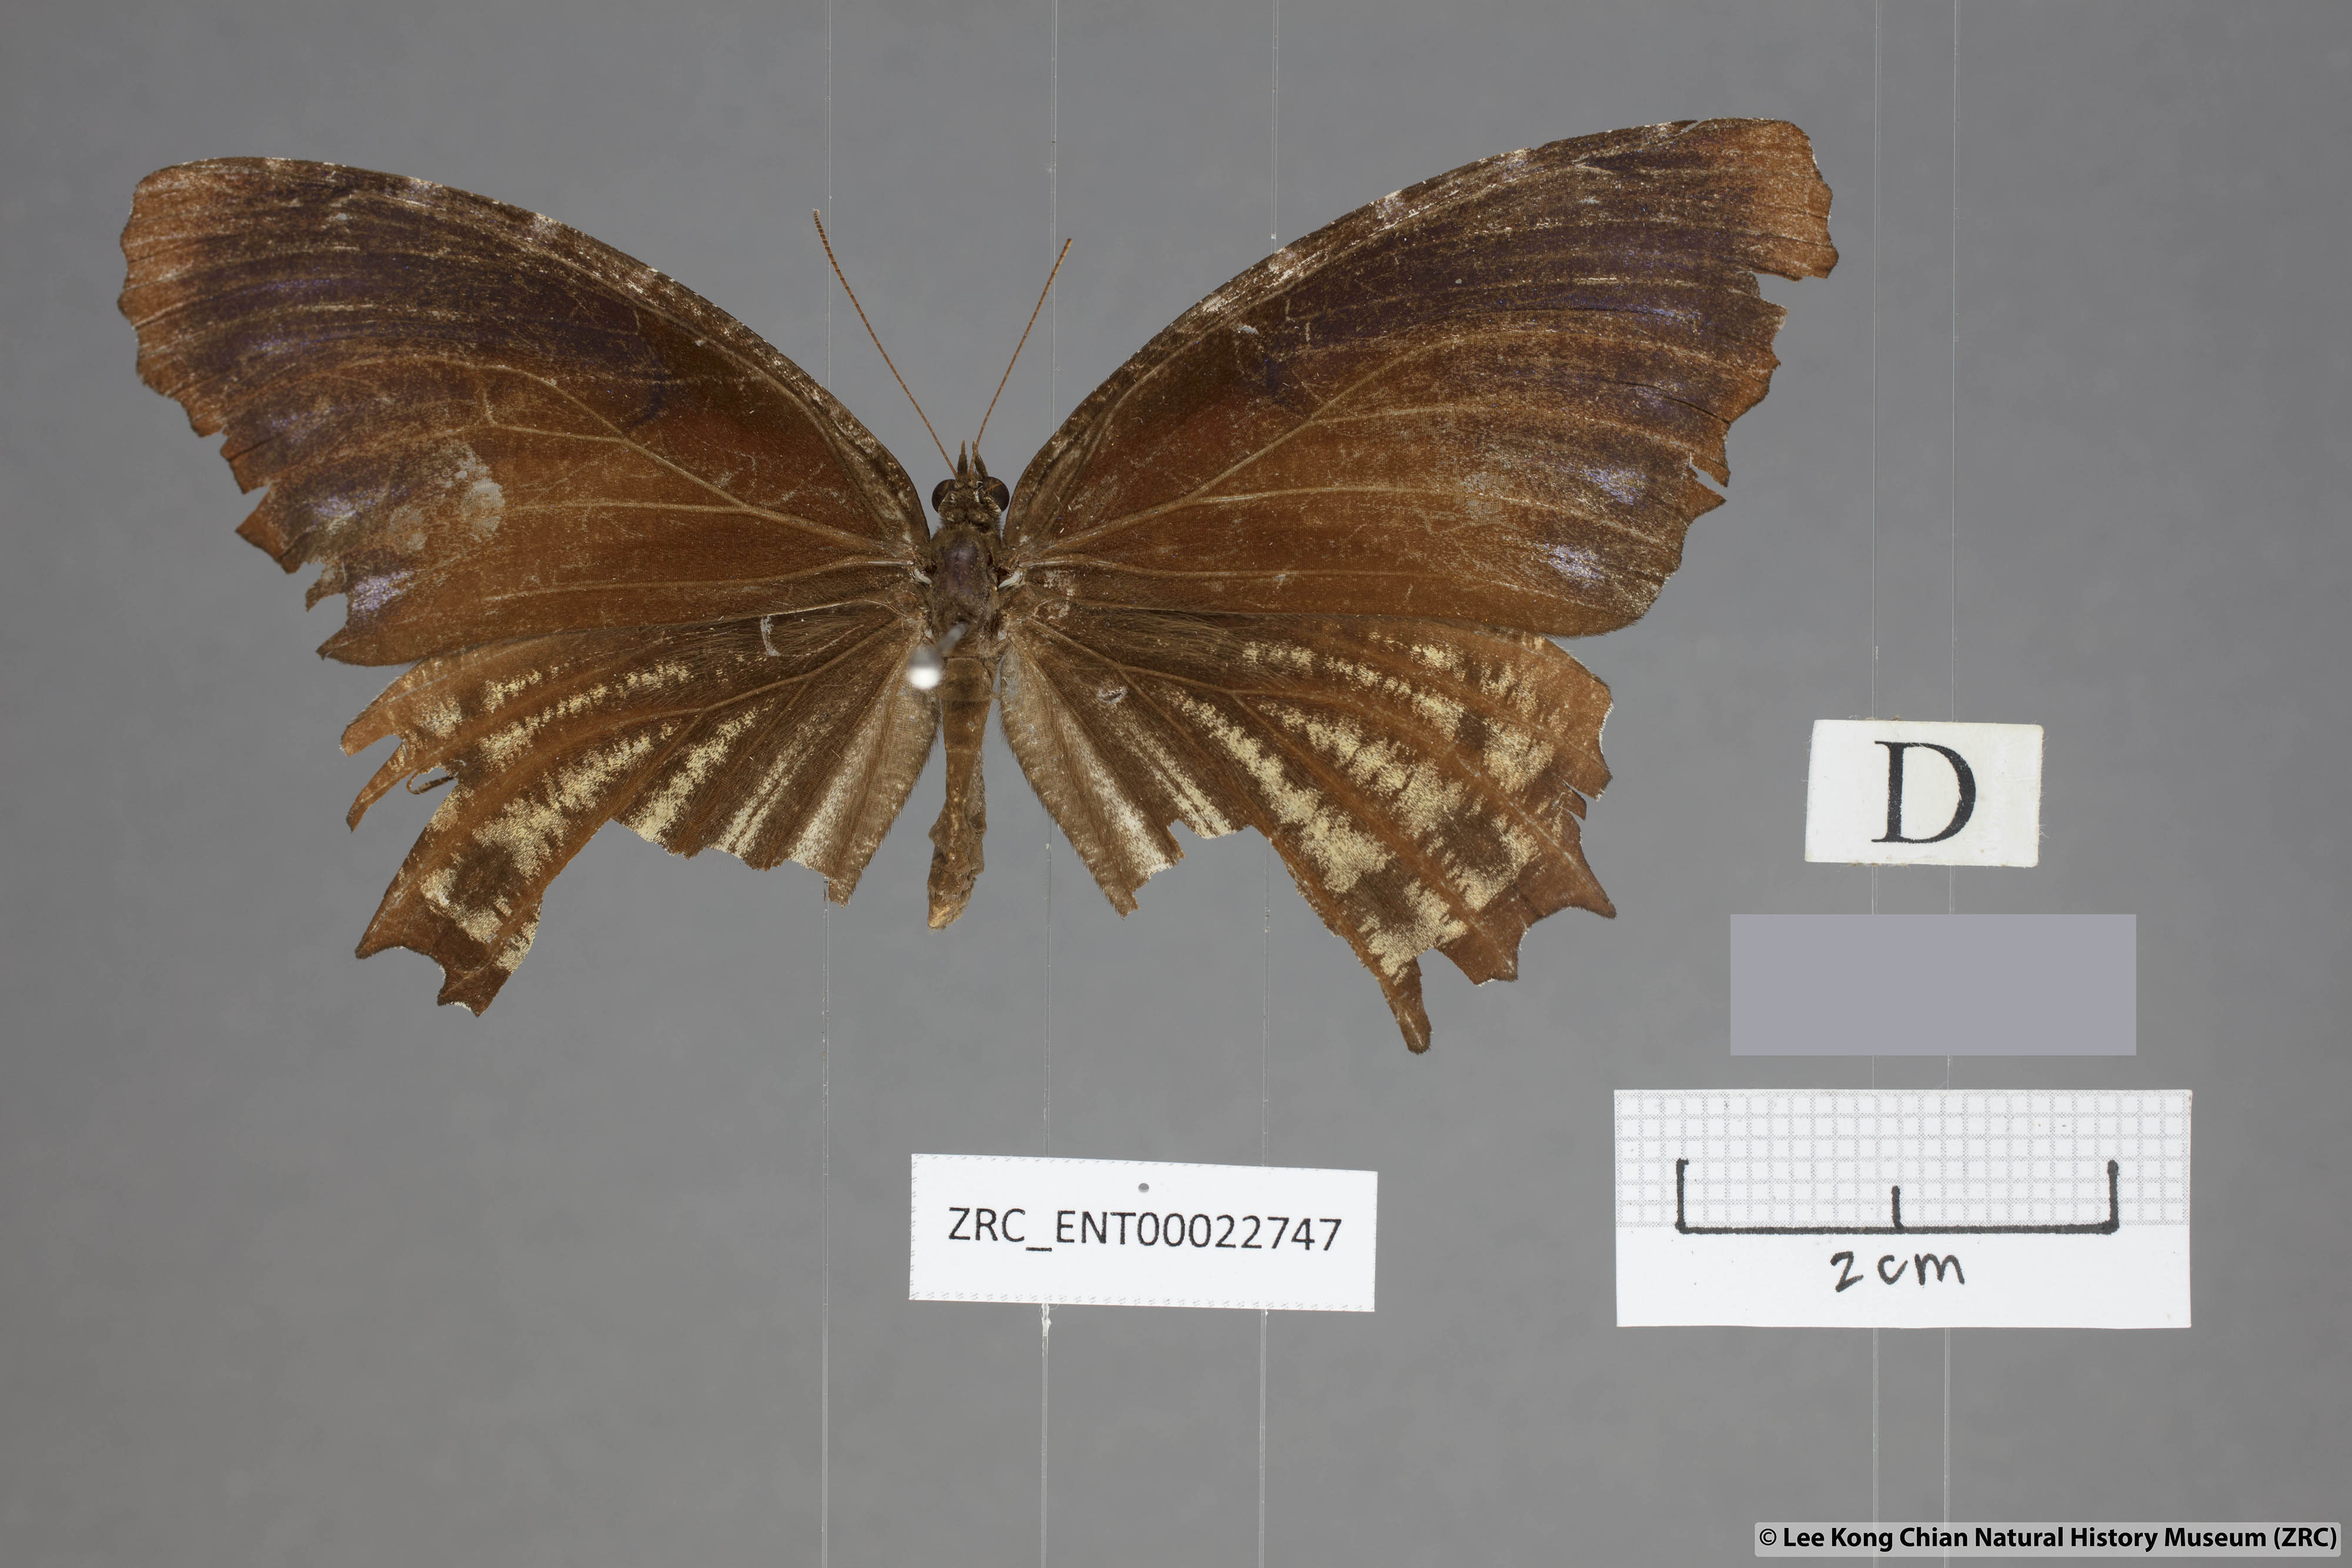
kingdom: Animalia
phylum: Arthropoda
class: Insecta
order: Lepidoptera
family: Nymphalidae
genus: Elymnias
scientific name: Elymnias kamara
